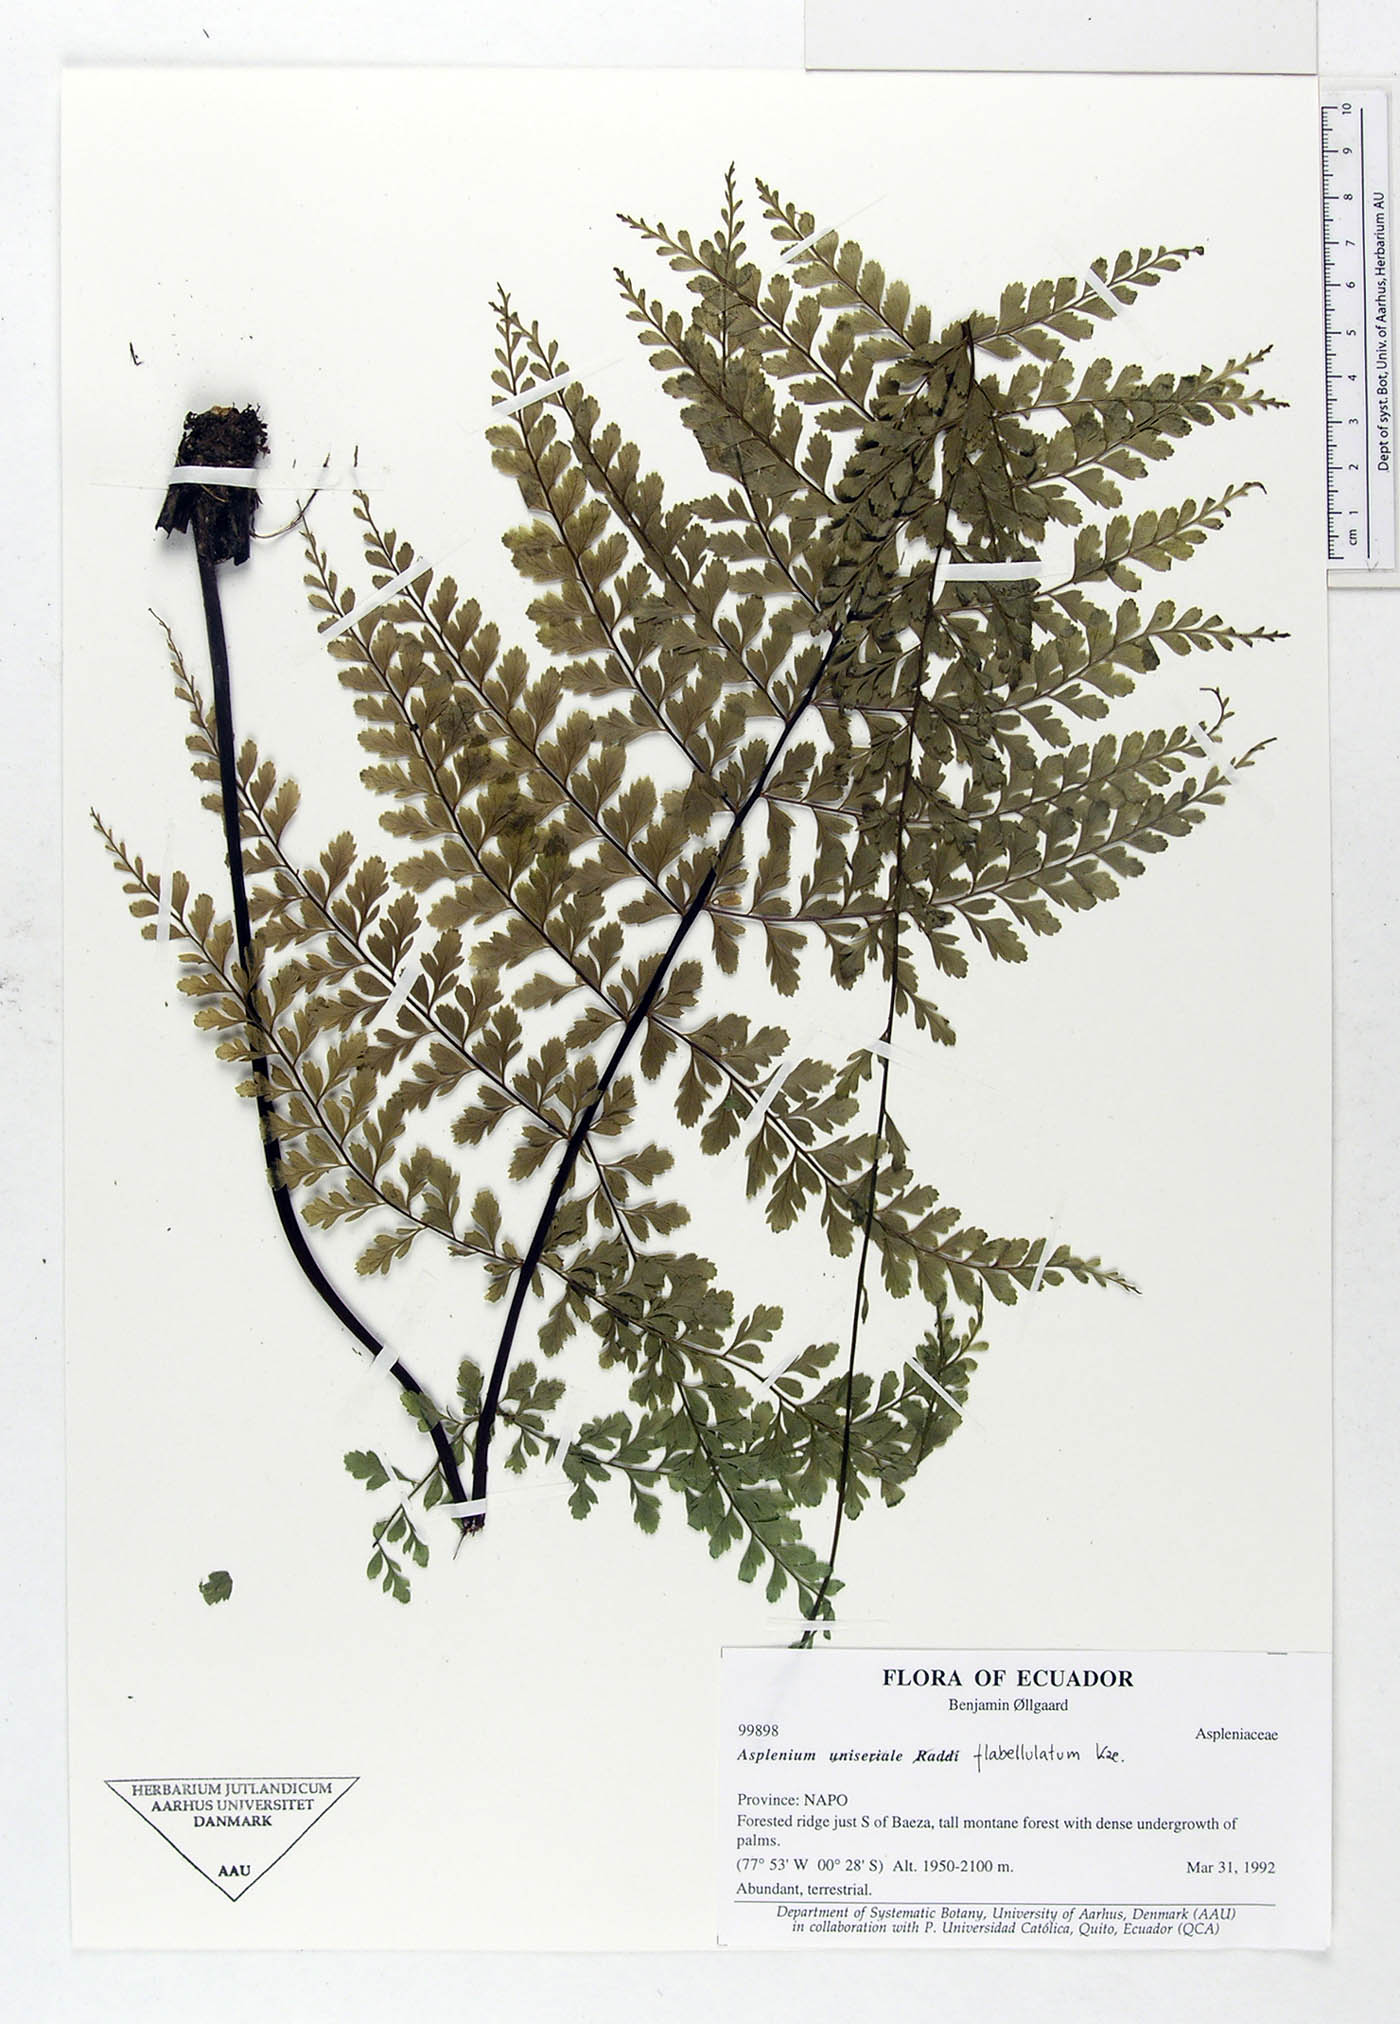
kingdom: Plantae
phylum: Tracheophyta
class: Polypodiopsida
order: Polypodiales
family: Aspleniaceae
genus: Asplenium
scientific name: Asplenium flabellulatum
